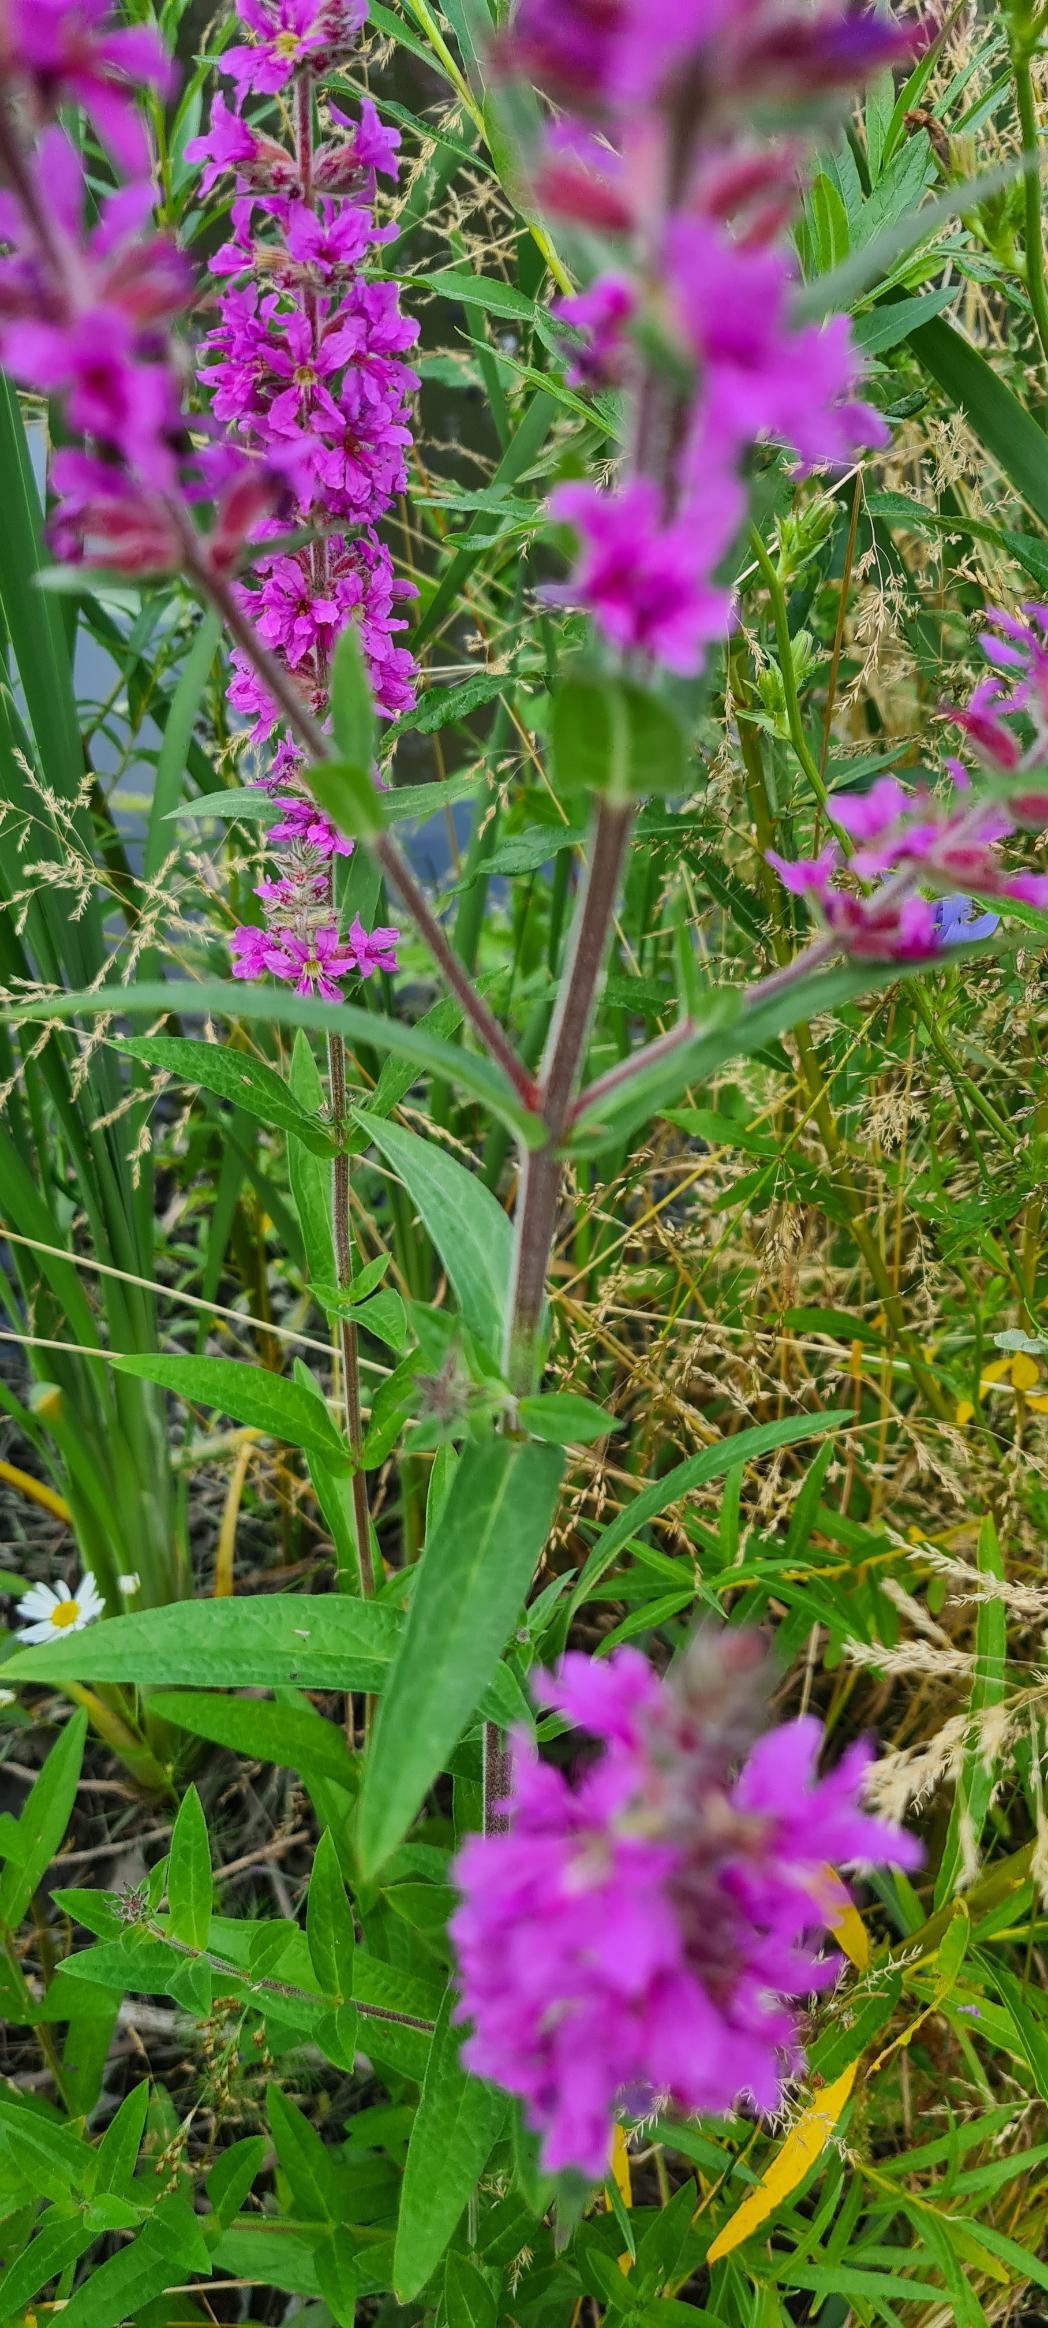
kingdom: Plantae
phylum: Tracheophyta
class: Magnoliopsida
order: Myrtales
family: Lythraceae
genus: Lythrum
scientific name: Lythrum salicaria
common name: Kattehale
